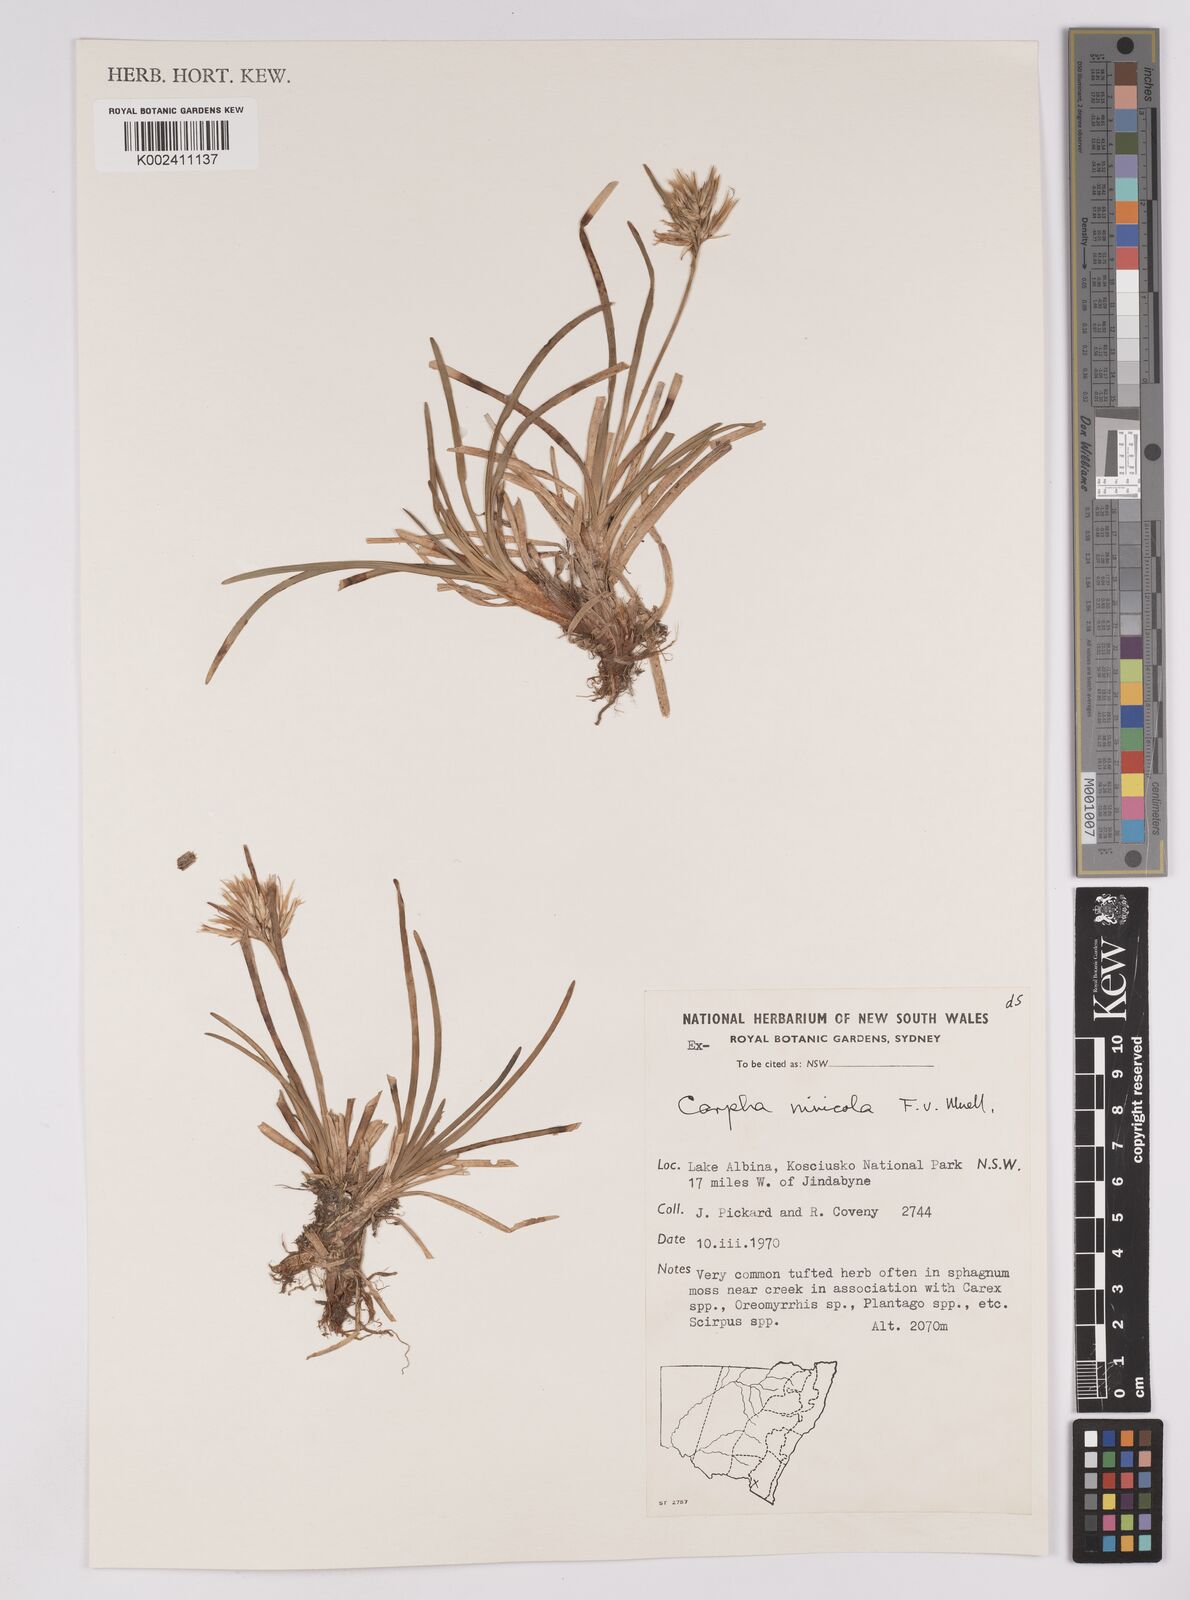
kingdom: Plantae
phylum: Tracheophyta
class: Liliopsida
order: Poales
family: Cyperaceae
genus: Carpha
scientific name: Carpha alpina
